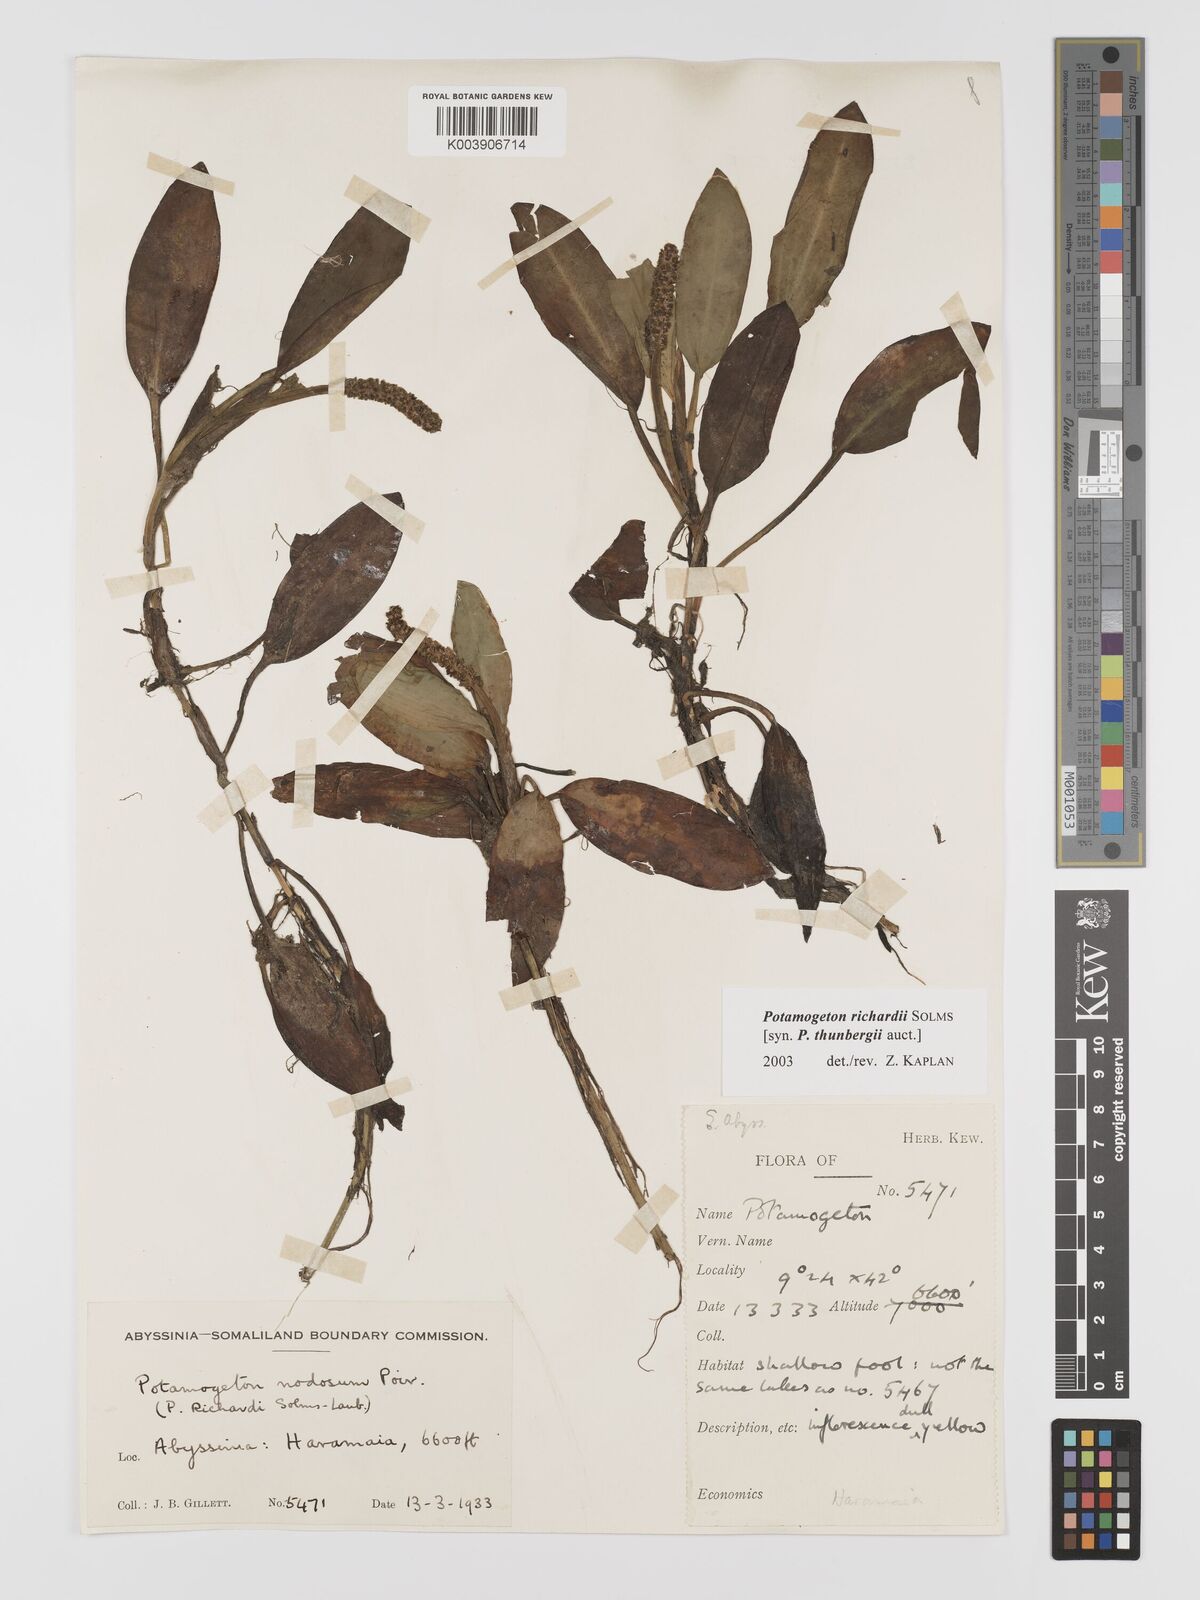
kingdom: Plantae
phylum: Tracheophyta
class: Liliopsida
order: Alismatales
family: Potamogetonaceae
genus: Potamogeton
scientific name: Potamogeton nodosus
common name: Loddon pondweed
